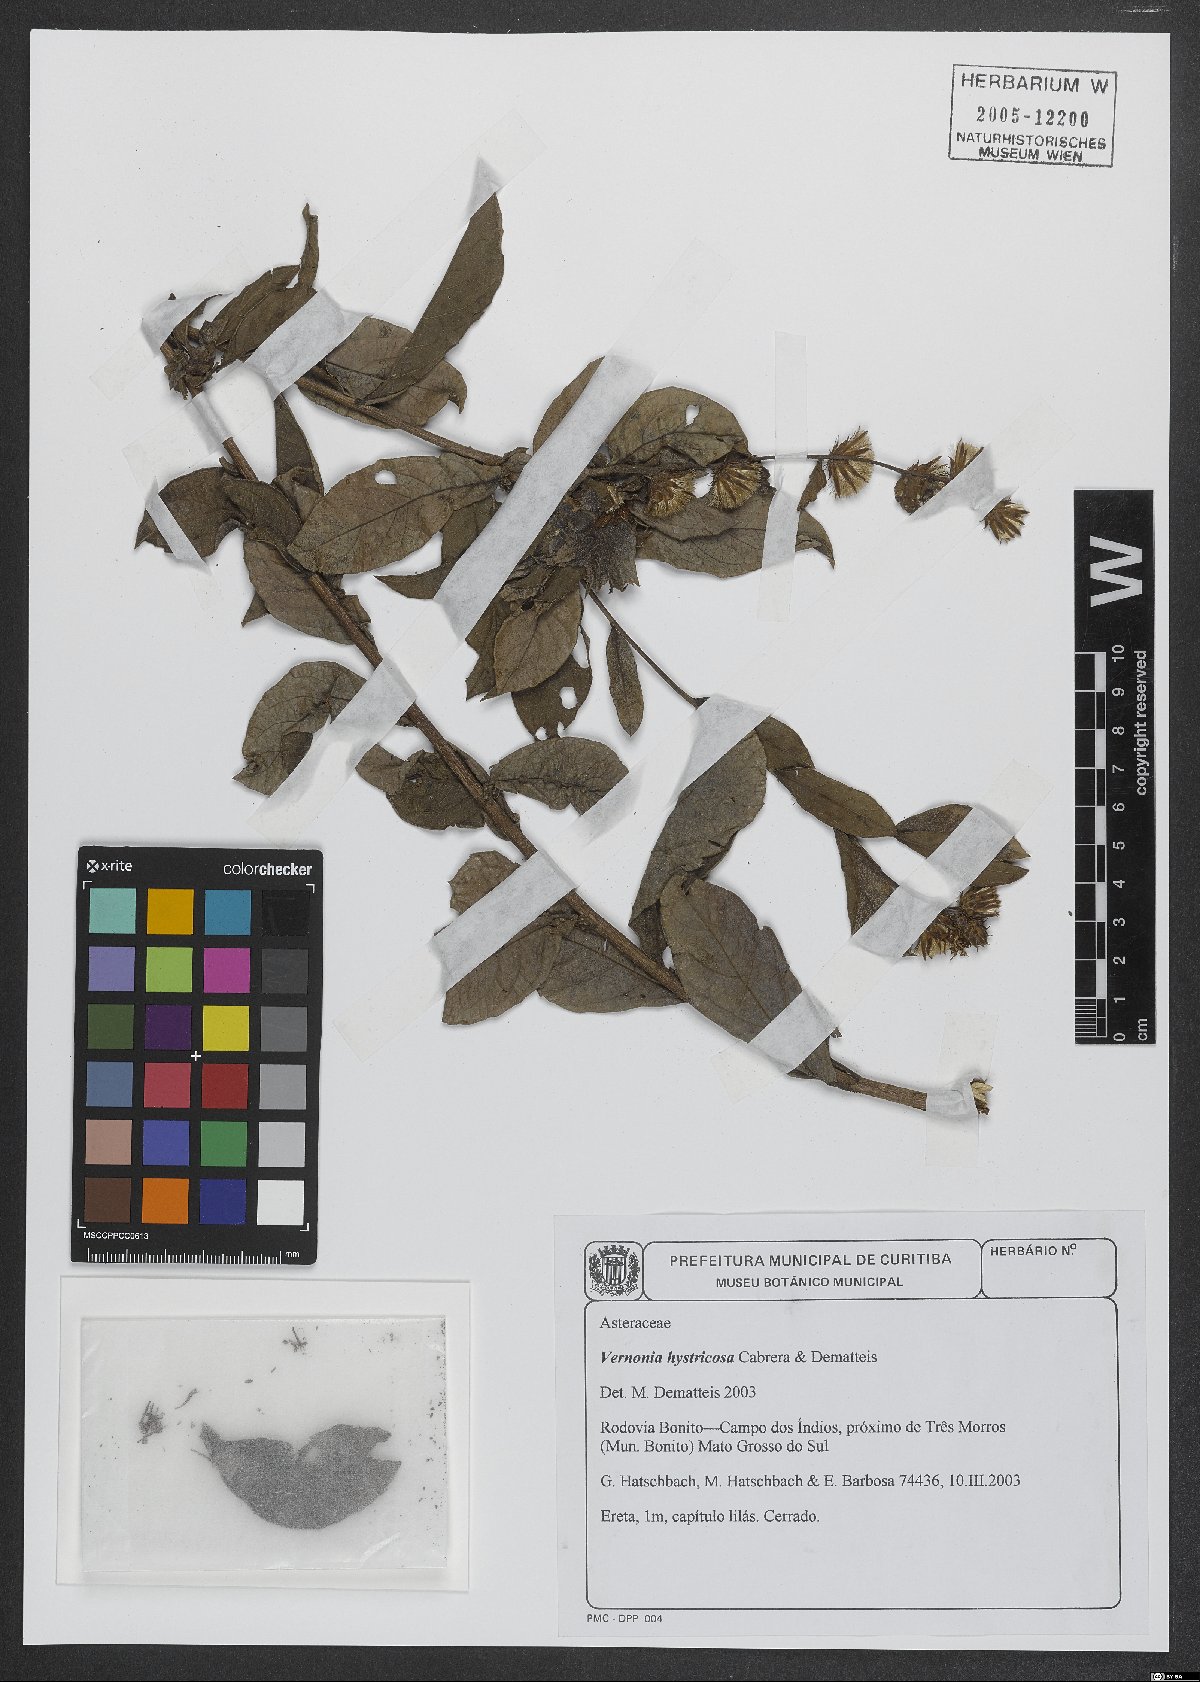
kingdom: Plantae
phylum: Tracheophyta
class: Magnoliopsida
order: Asterales
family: Asteraceae
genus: Lessingianthus
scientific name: Lessingianthus hystricosus
